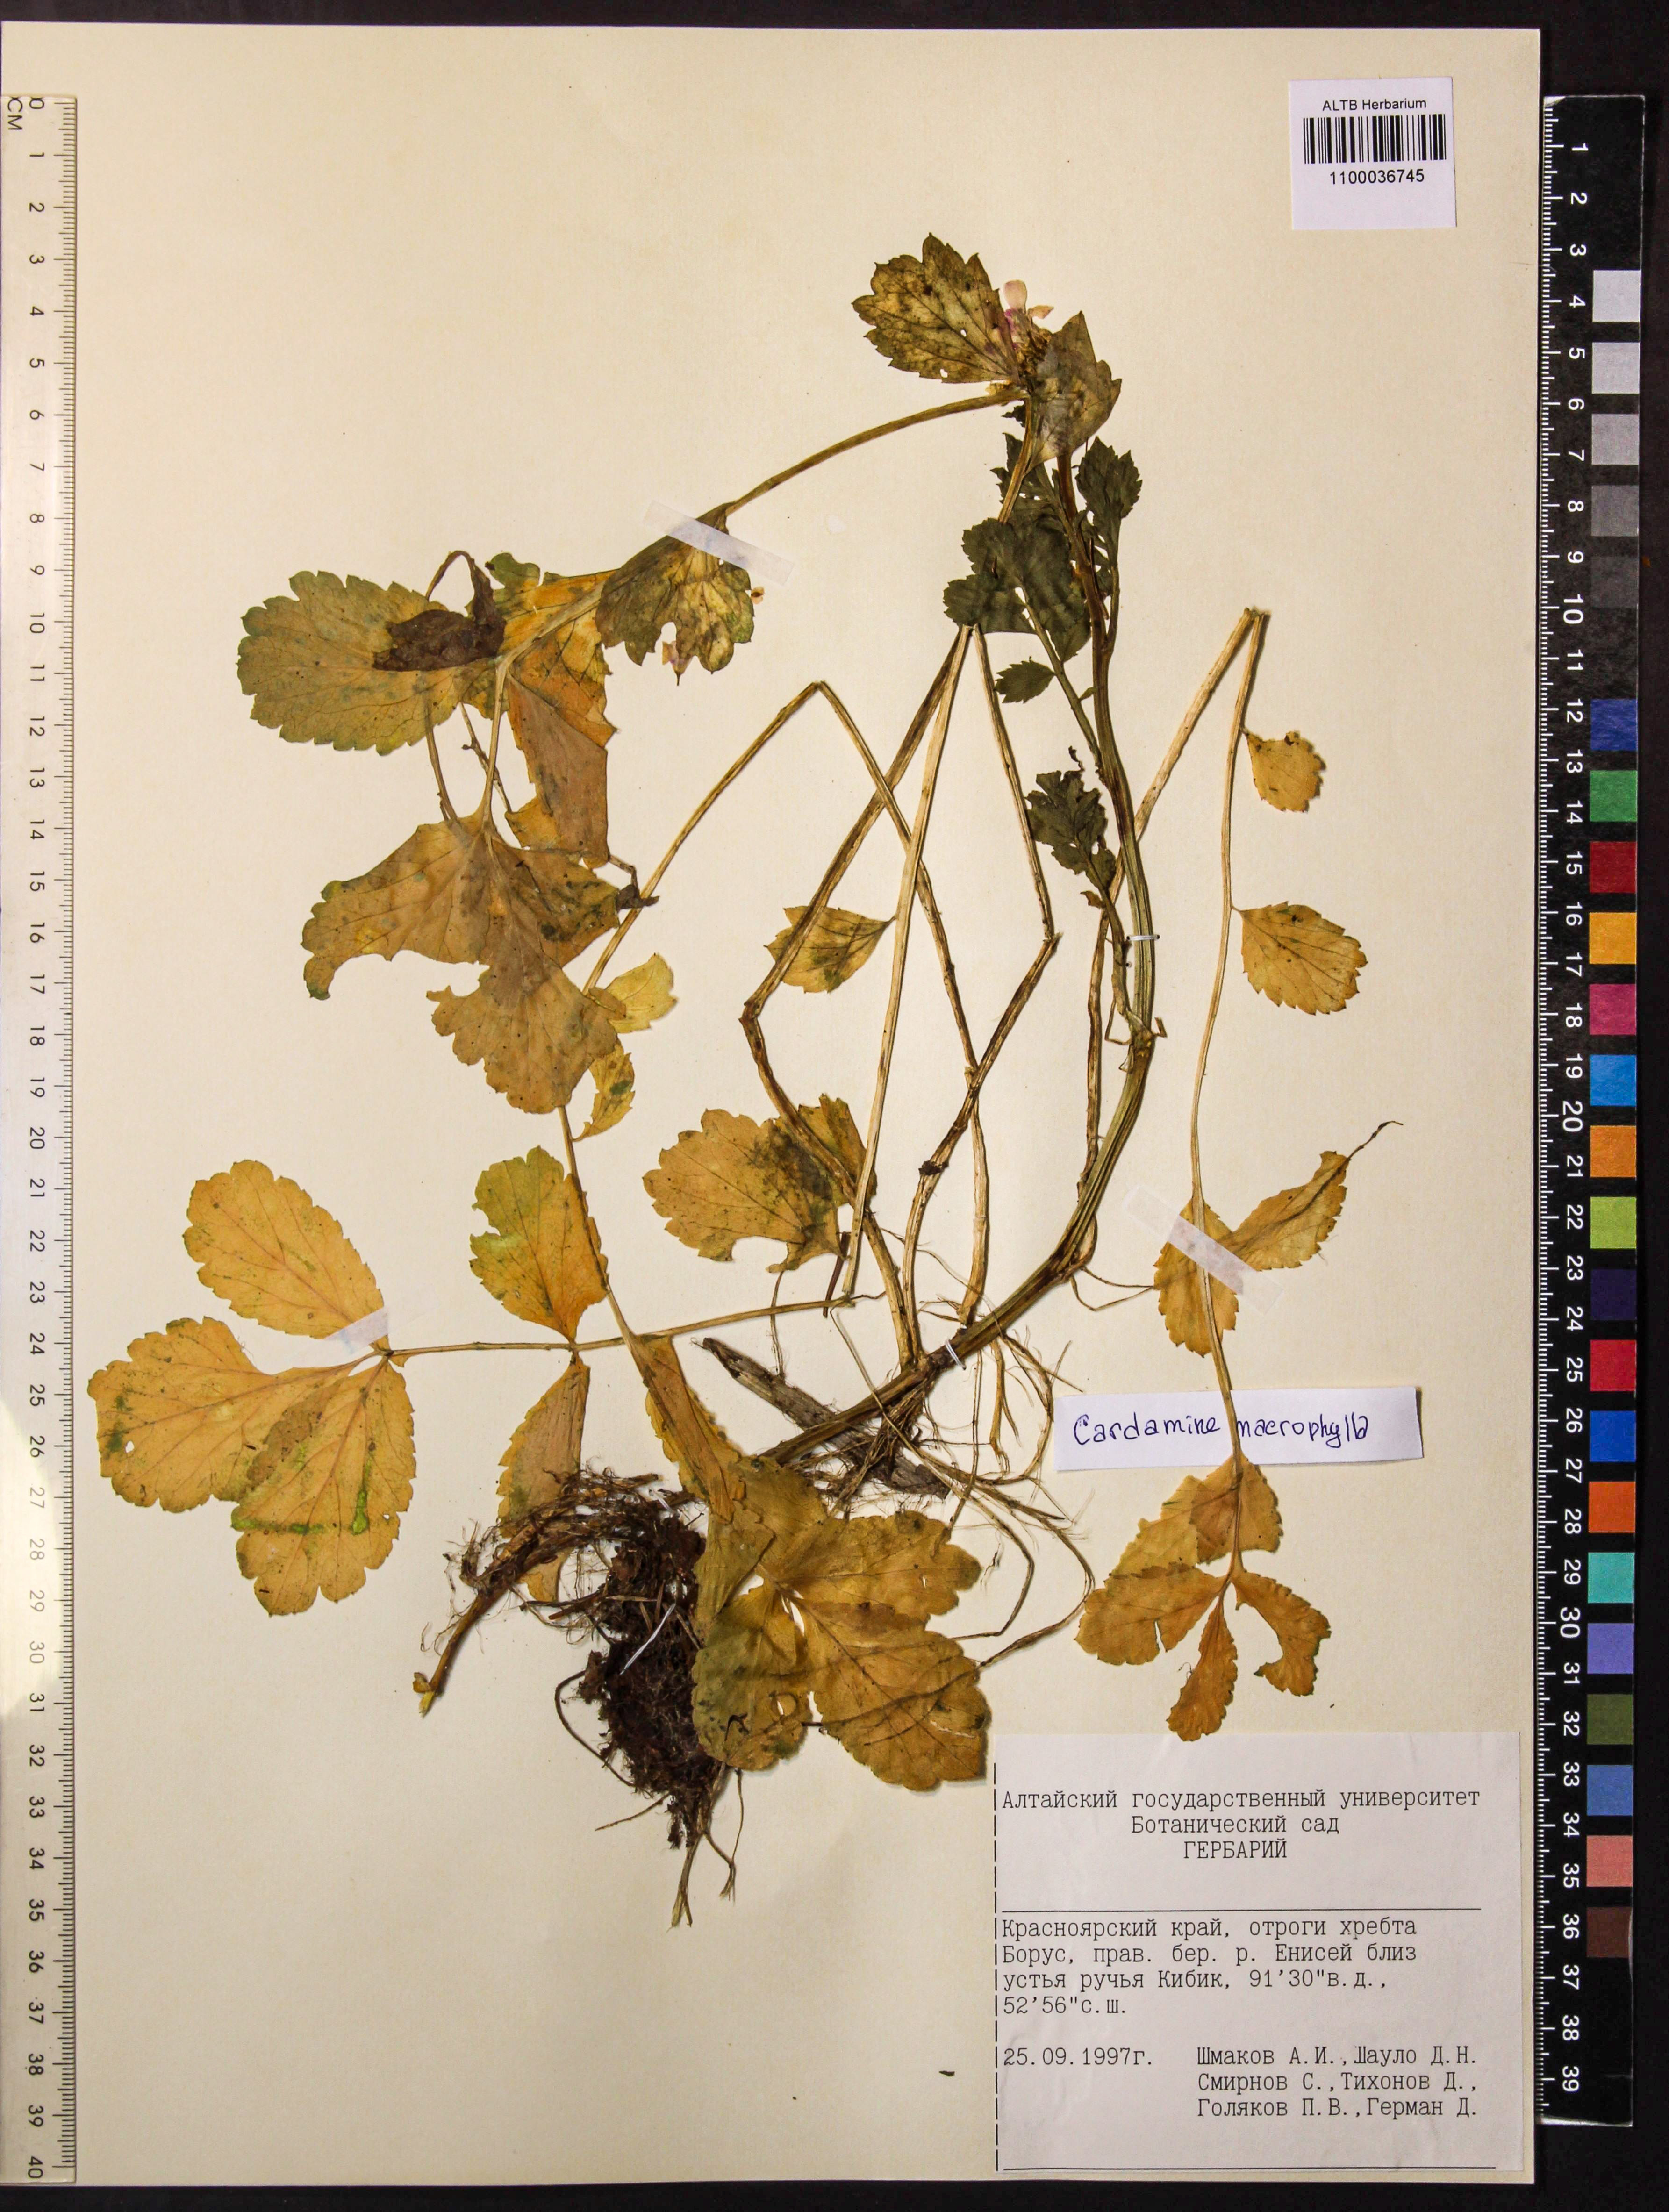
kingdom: Plantae
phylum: Tracheophyta
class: Magnoliopsida
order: Brassicales
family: Brassicaceae
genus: Cardamine
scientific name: Cardamine macrophylla
